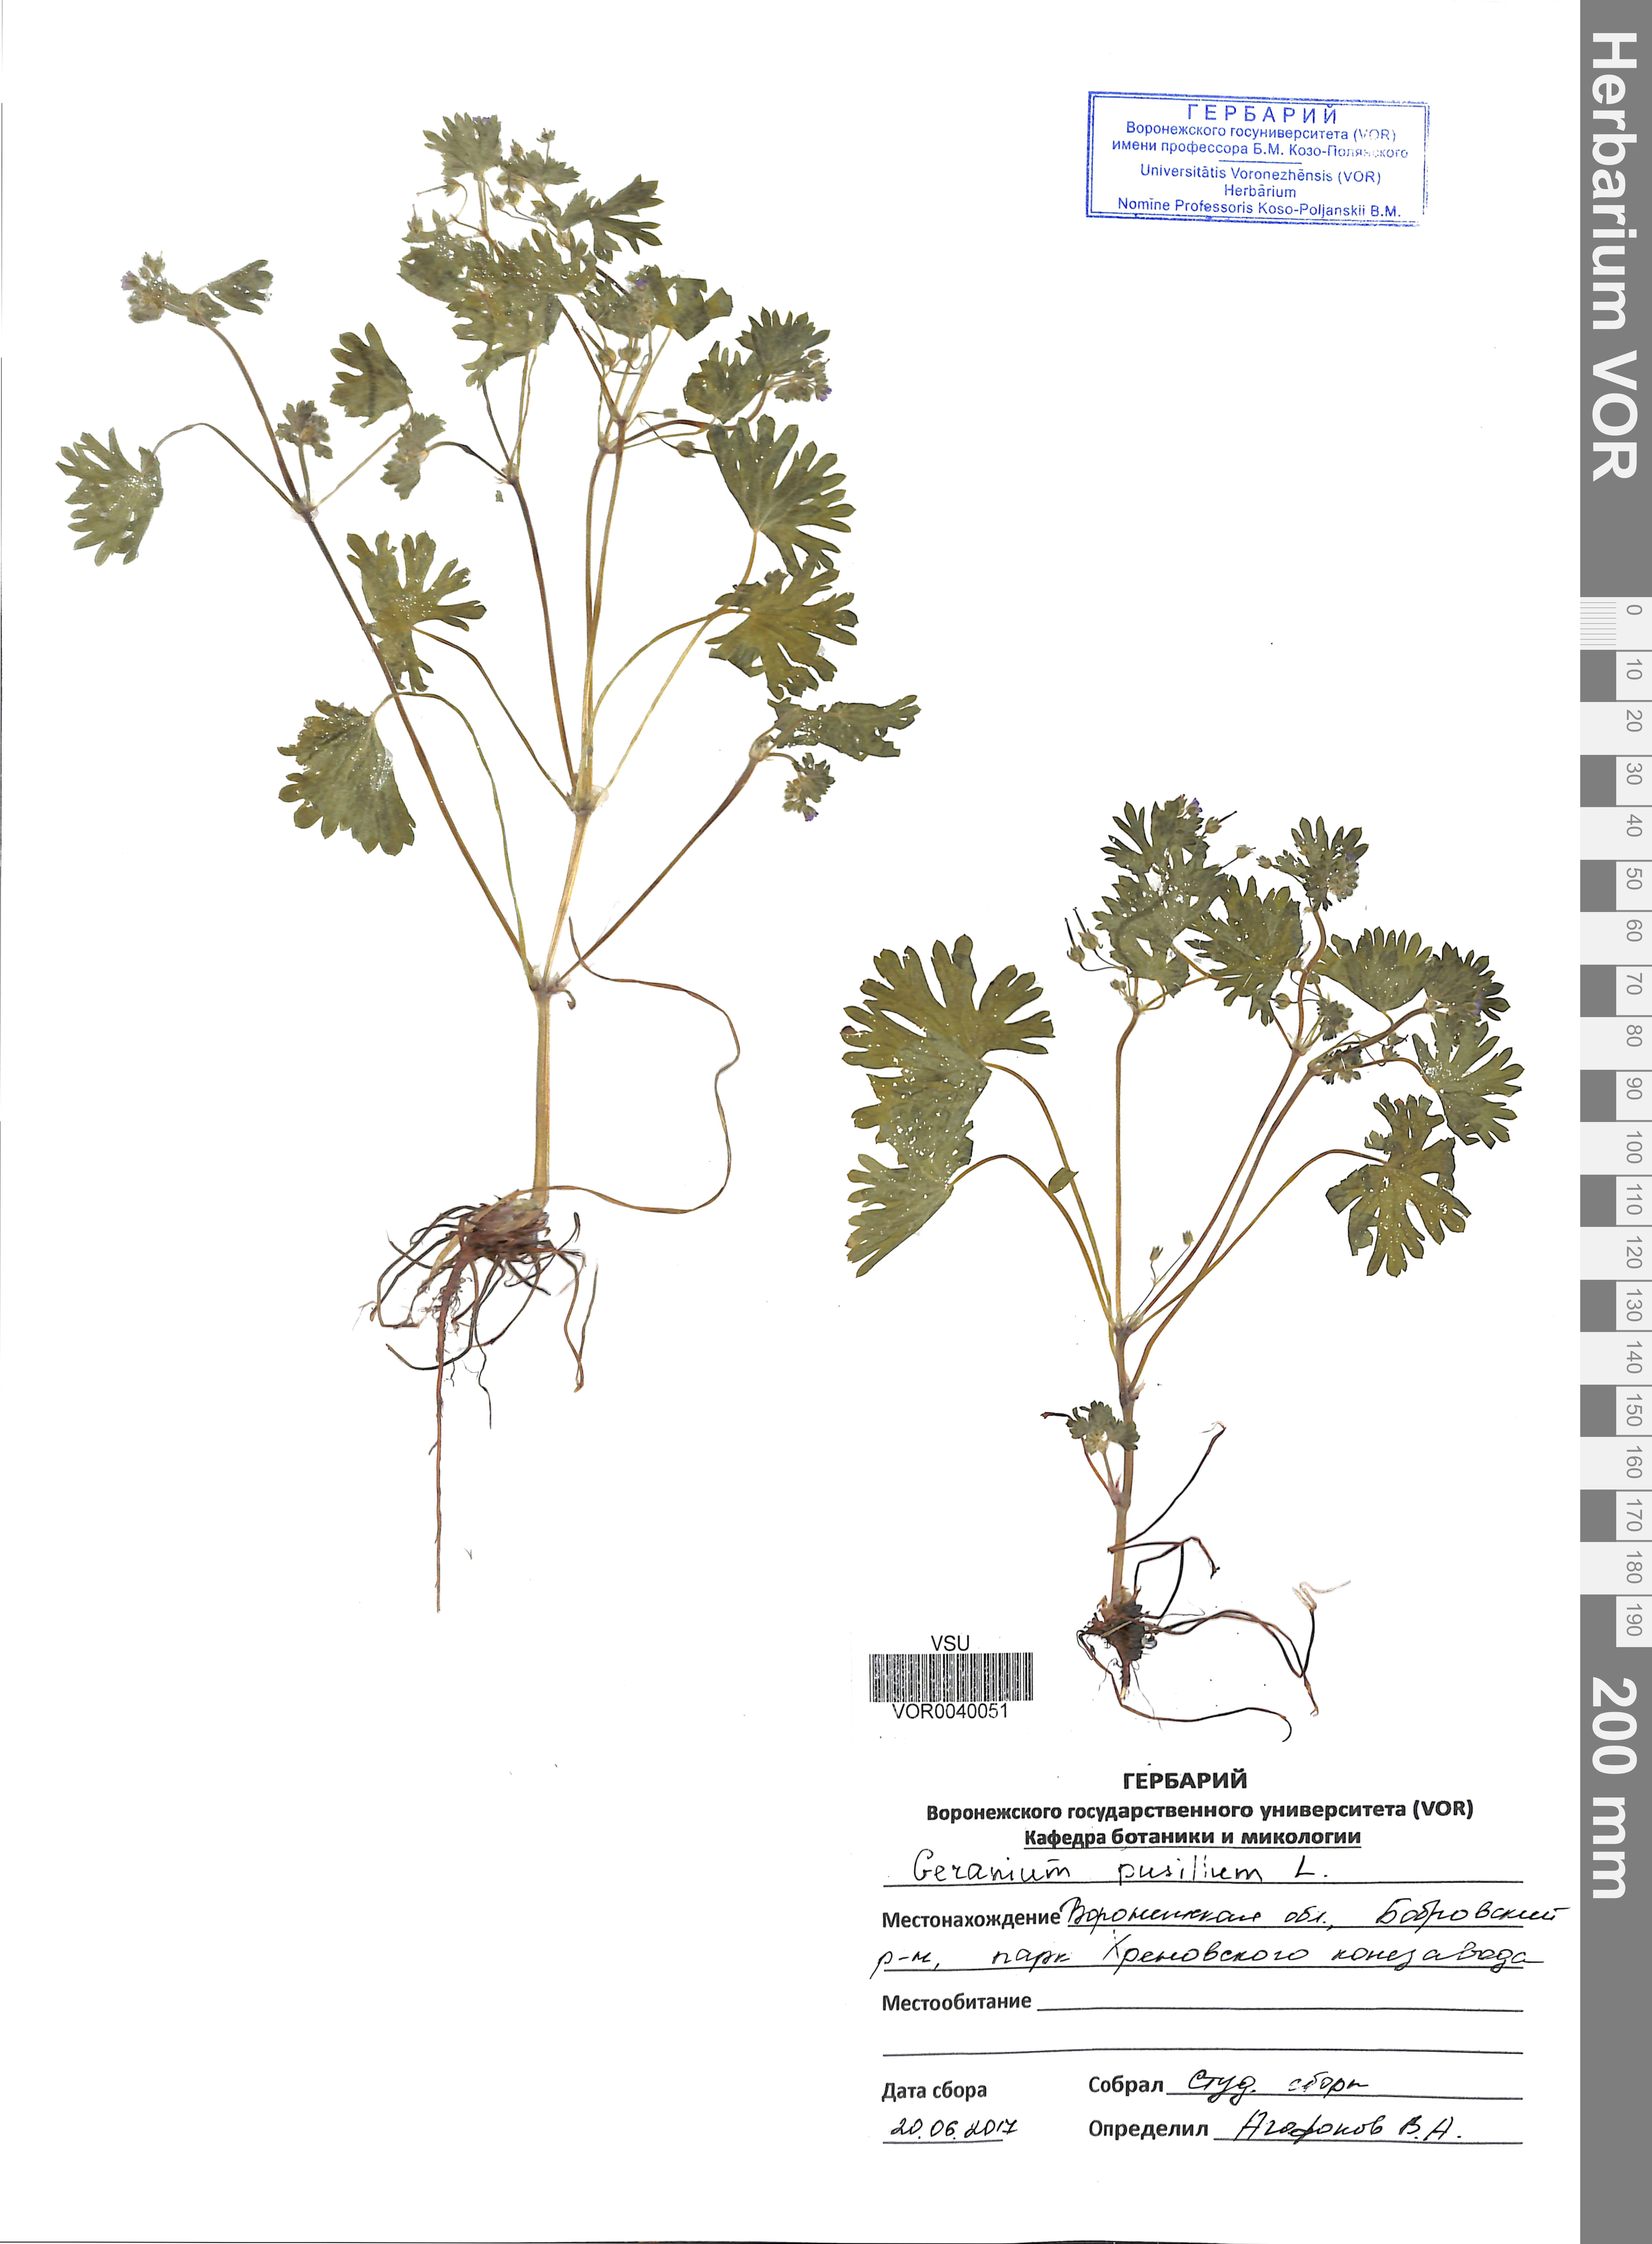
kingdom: Plantae
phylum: Tracheophyta
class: Magnoliopsida
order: Geraniales
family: Geraniaceae
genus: Geranium
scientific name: Geranium pusillum
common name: Small geranium
